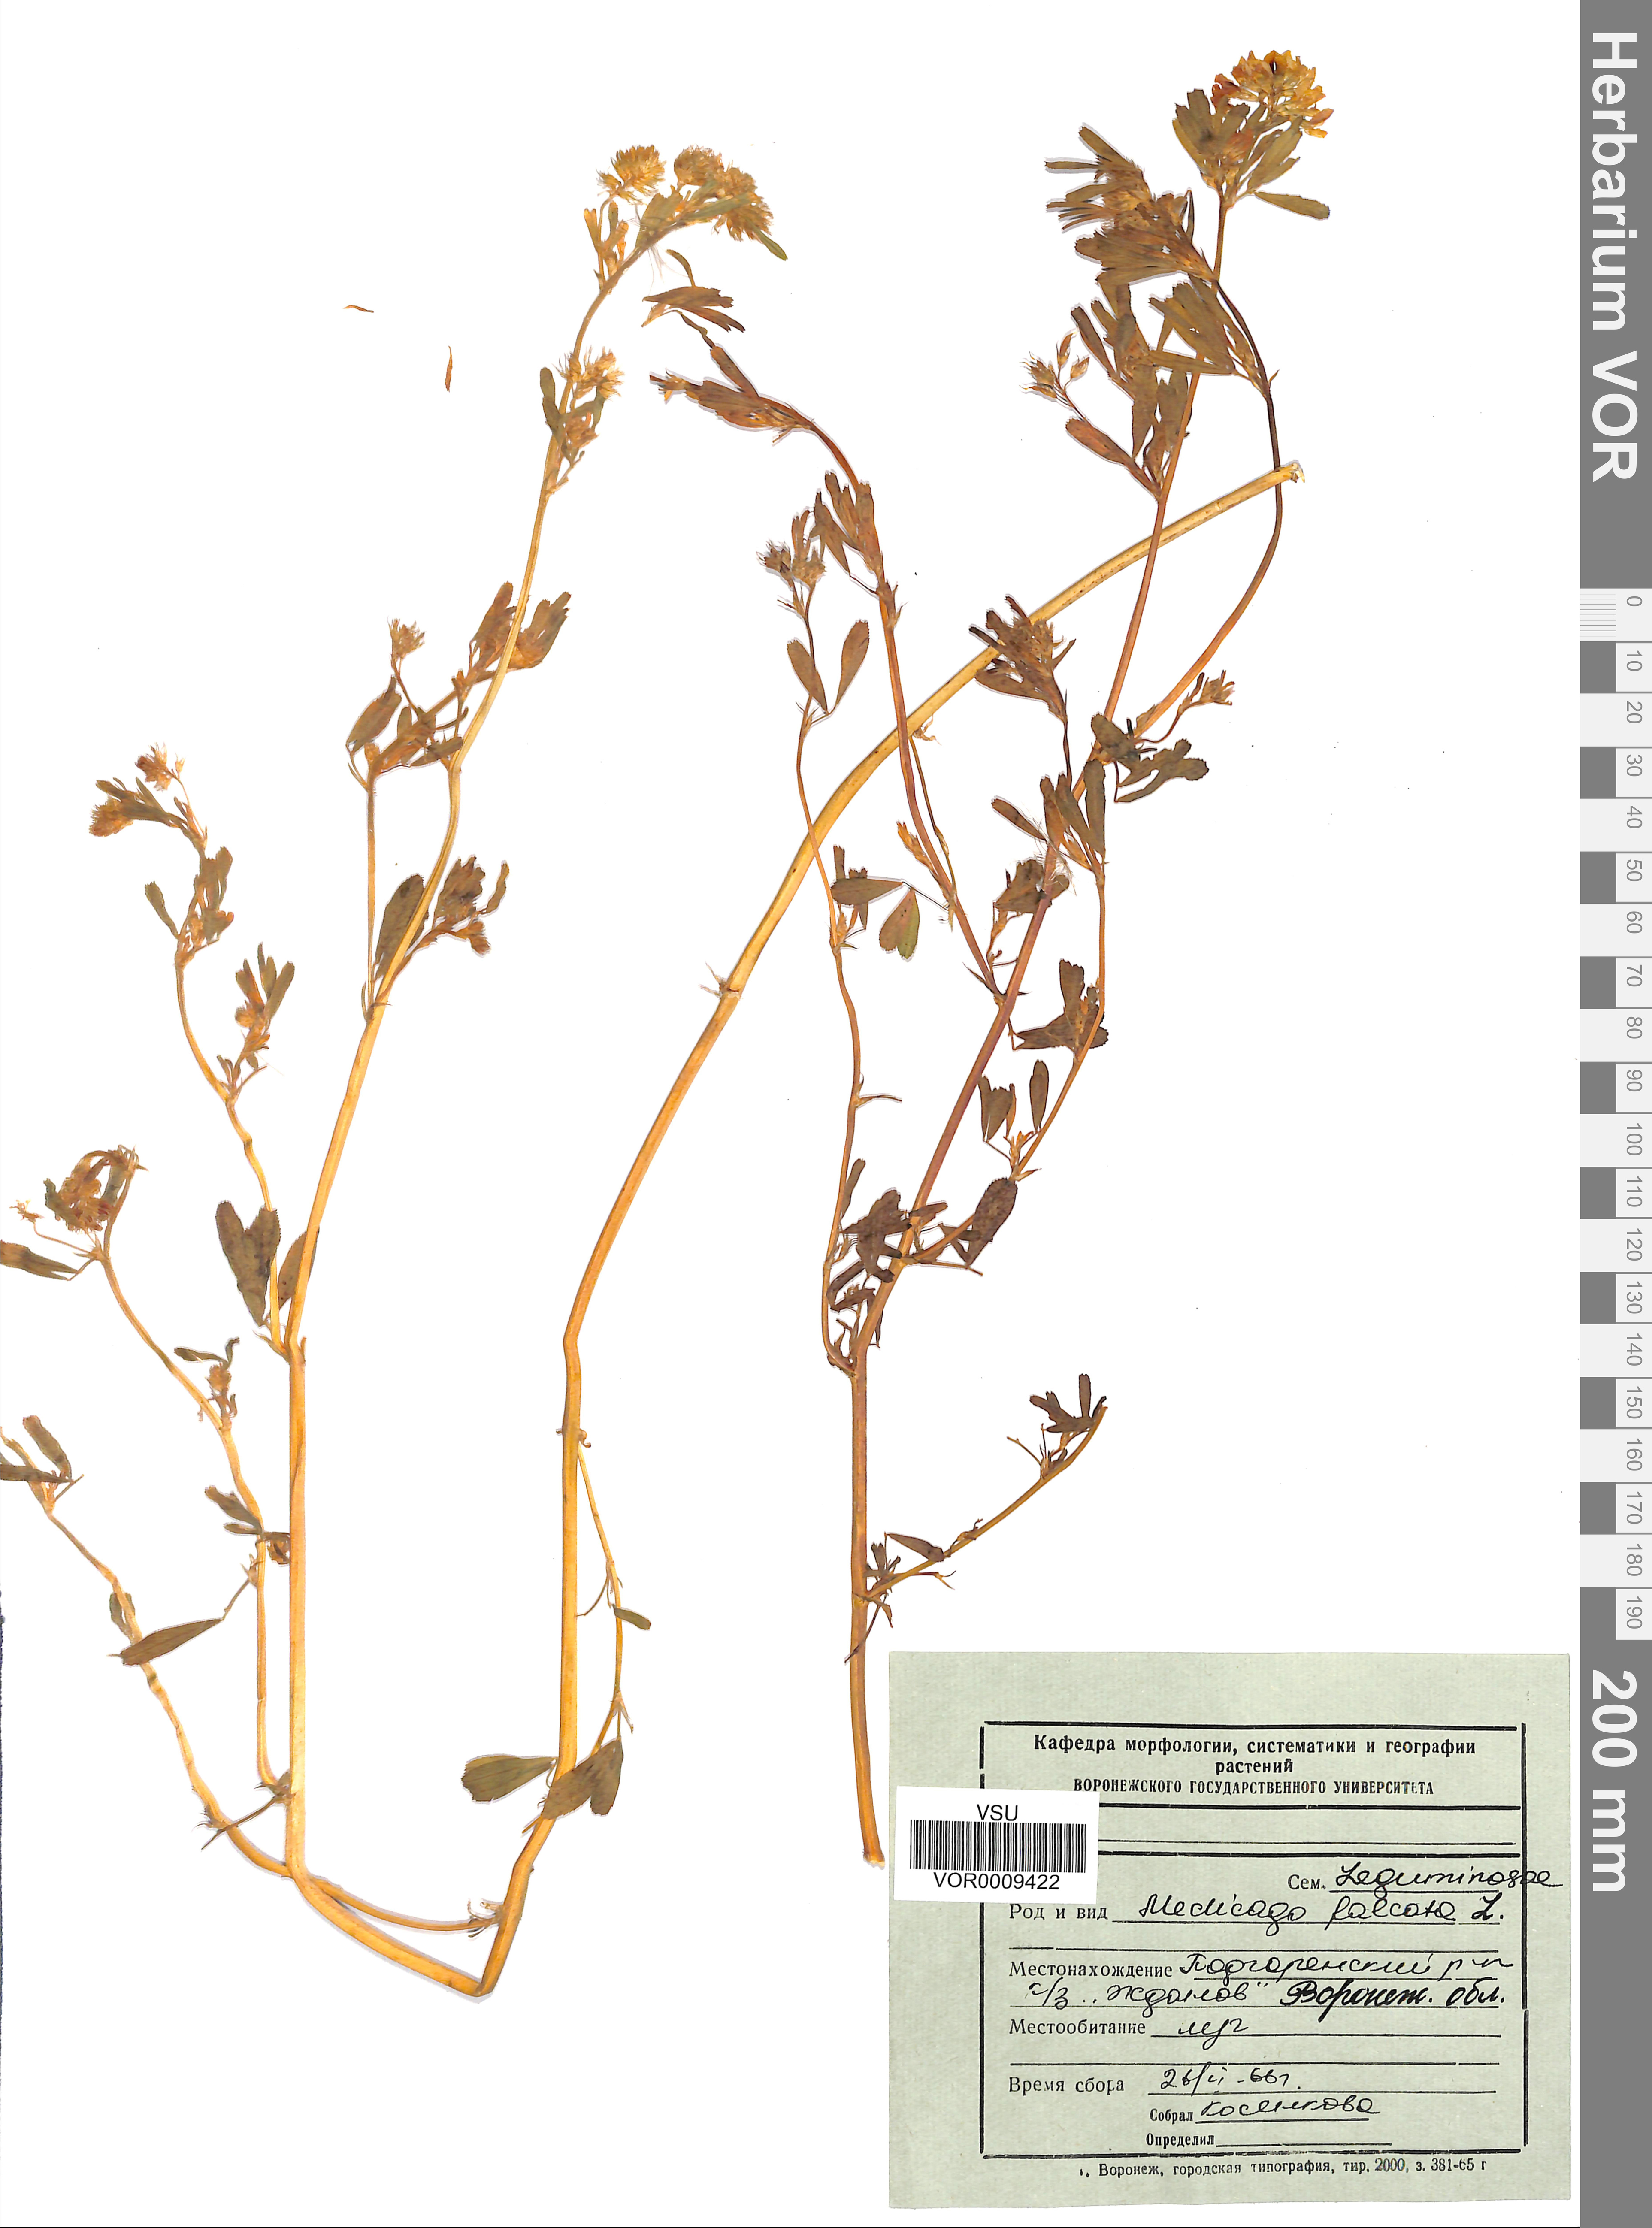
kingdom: Plantae
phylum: Tracheophyta
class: Magnoliopsida
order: Fabales
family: Fabaceae
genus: Medicago
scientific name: Medicago falcata
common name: Sickle medick
